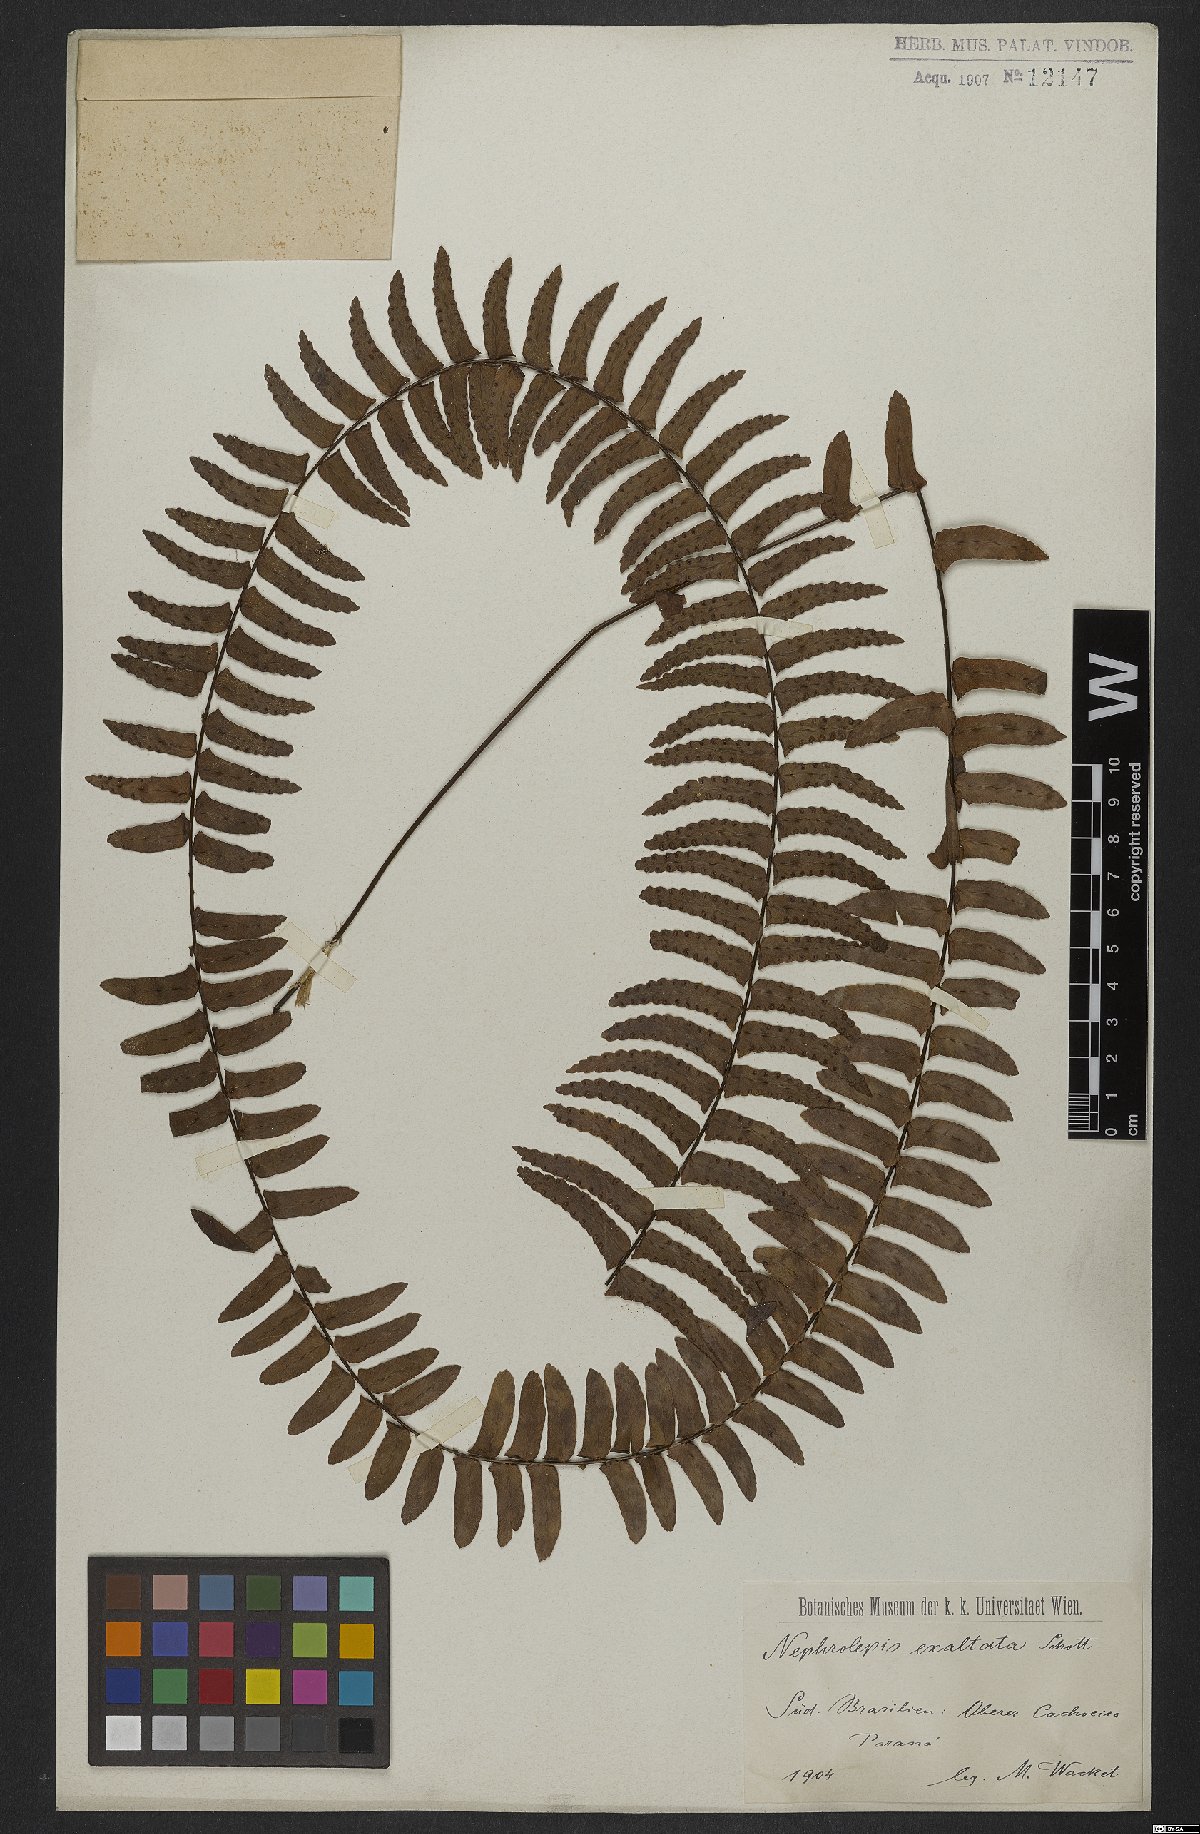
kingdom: Plantae
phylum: Tracheophyta
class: Polypodiopsida
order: Polypodiales
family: Nephrolepidaceae
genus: Nephrolepis
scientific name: Nephrolepis exaltata
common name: Sword fern
